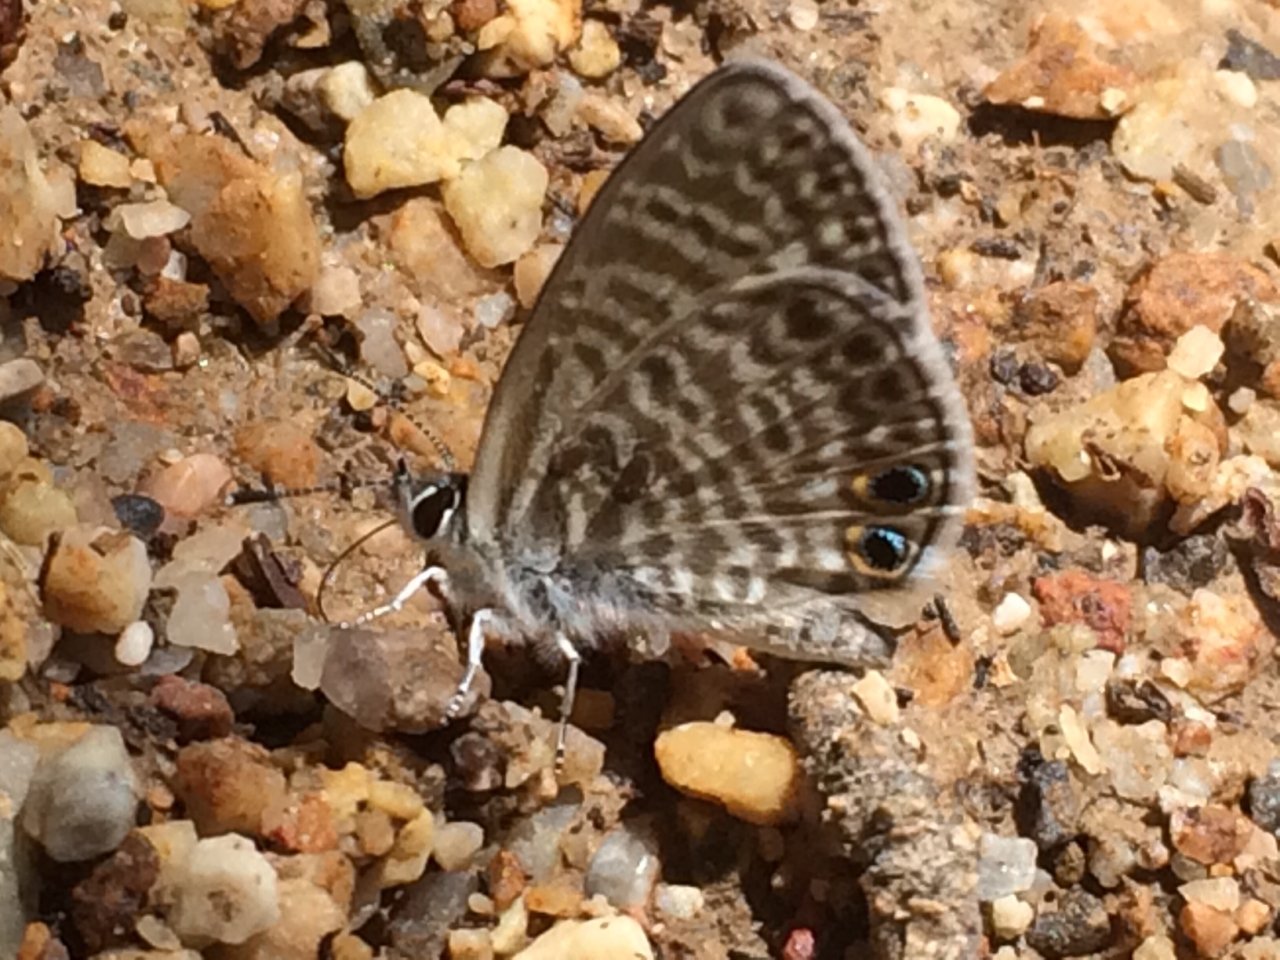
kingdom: Animalia
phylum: Arthropoda
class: Insecta
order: Lepidoptera
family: Lycaenidae
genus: Leptotes
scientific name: Leptotes marina
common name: Marine Blue
